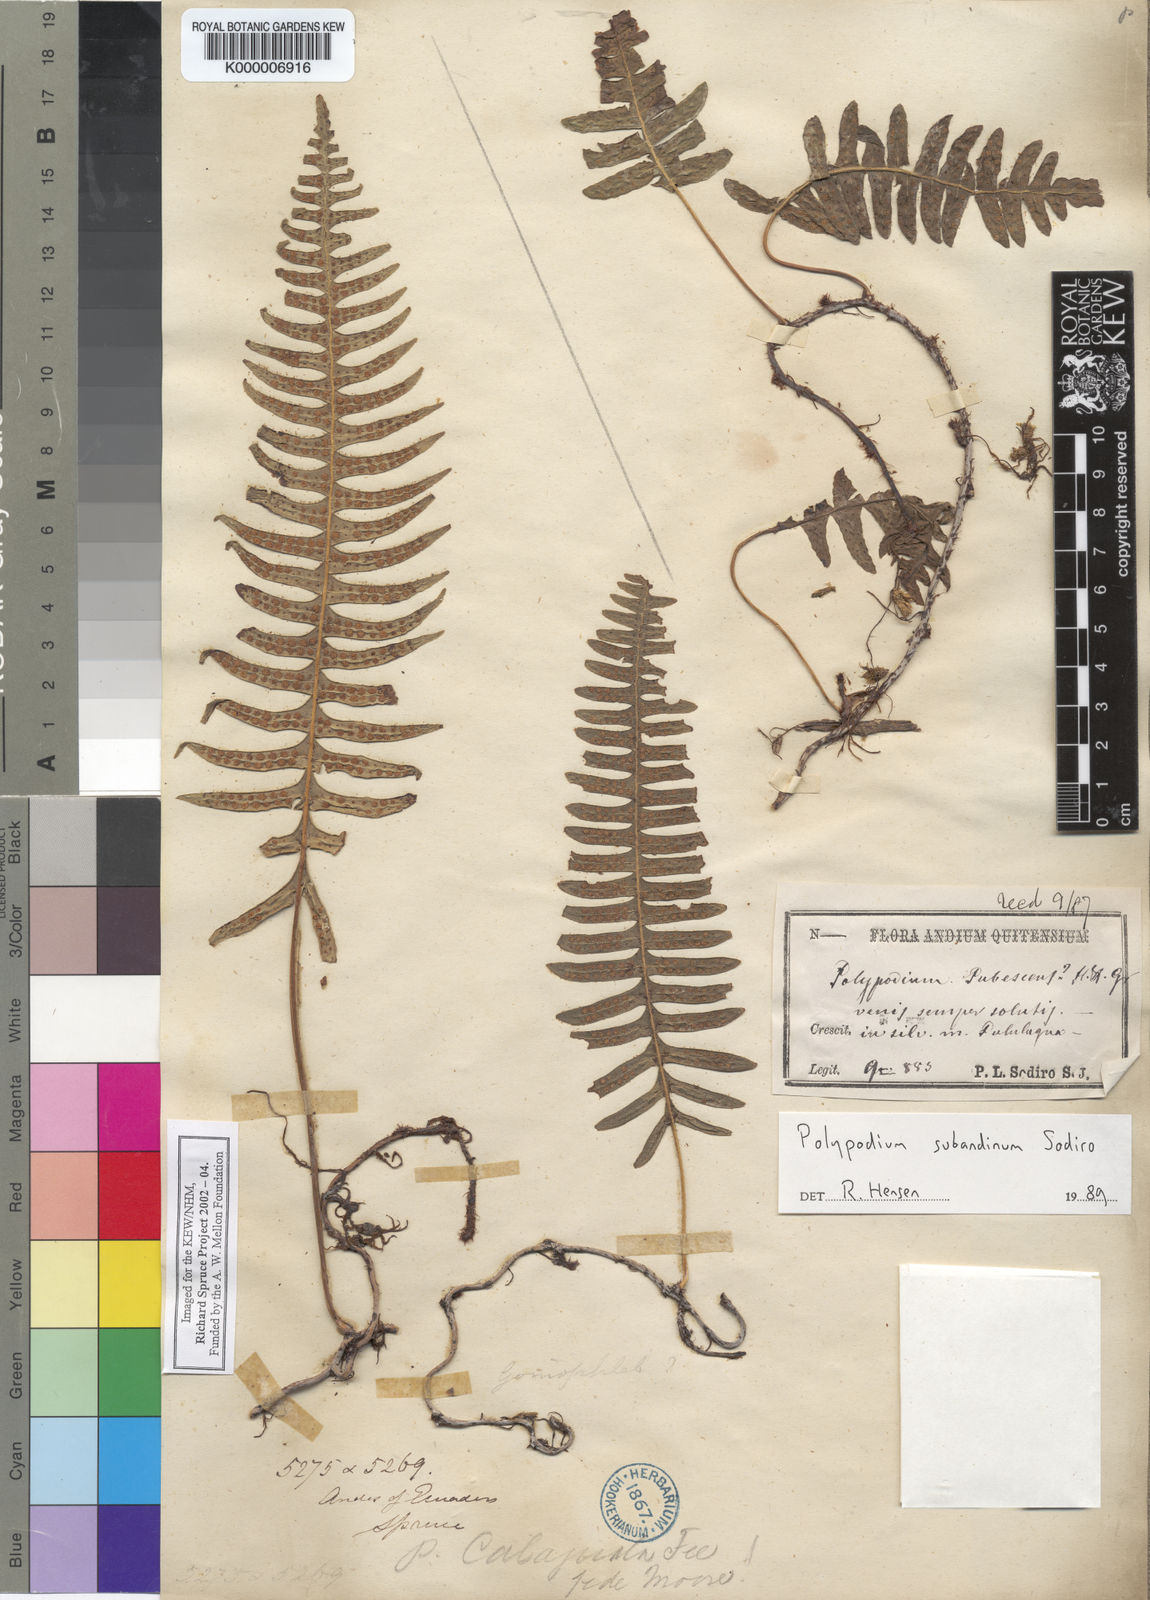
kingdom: Plantae
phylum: Tracheophyta
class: Polypodiopsida
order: Polypodiales
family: Polypodiaceae
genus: Serpocaulon
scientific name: Serpocaulon subandinum
